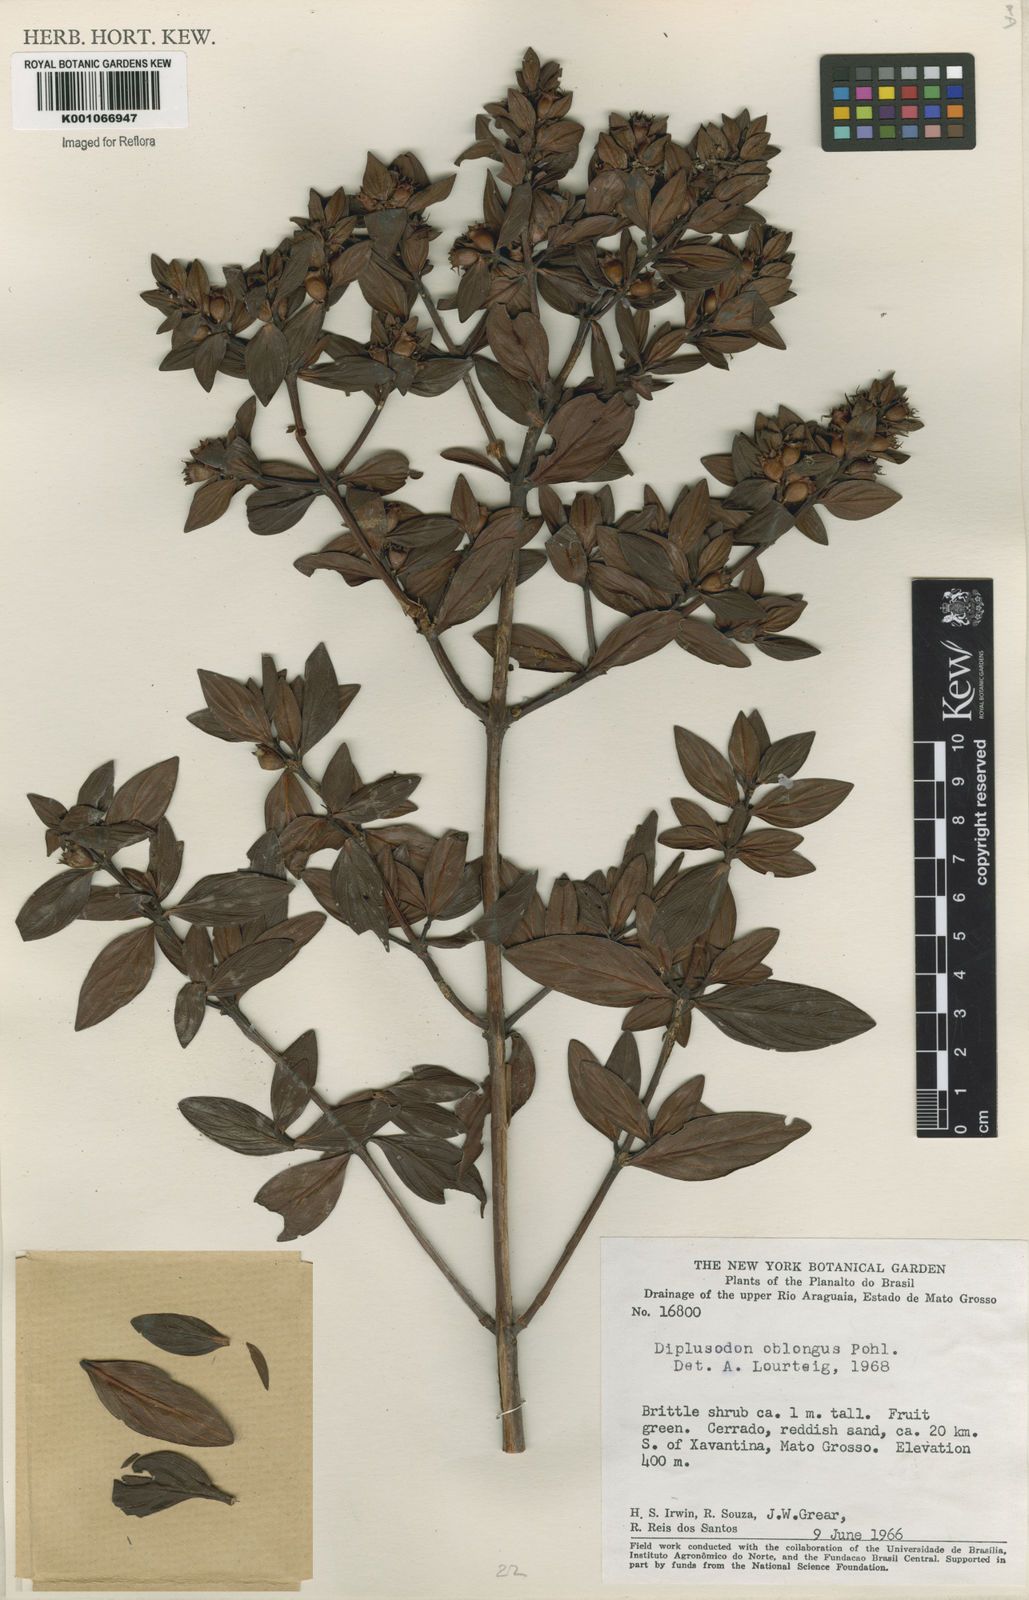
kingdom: Plantae
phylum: Tracheophyta
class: Magnoliopsida
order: Myrtales
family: Lythraceae
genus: Diplusodon
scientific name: Diplusodon oblongus
